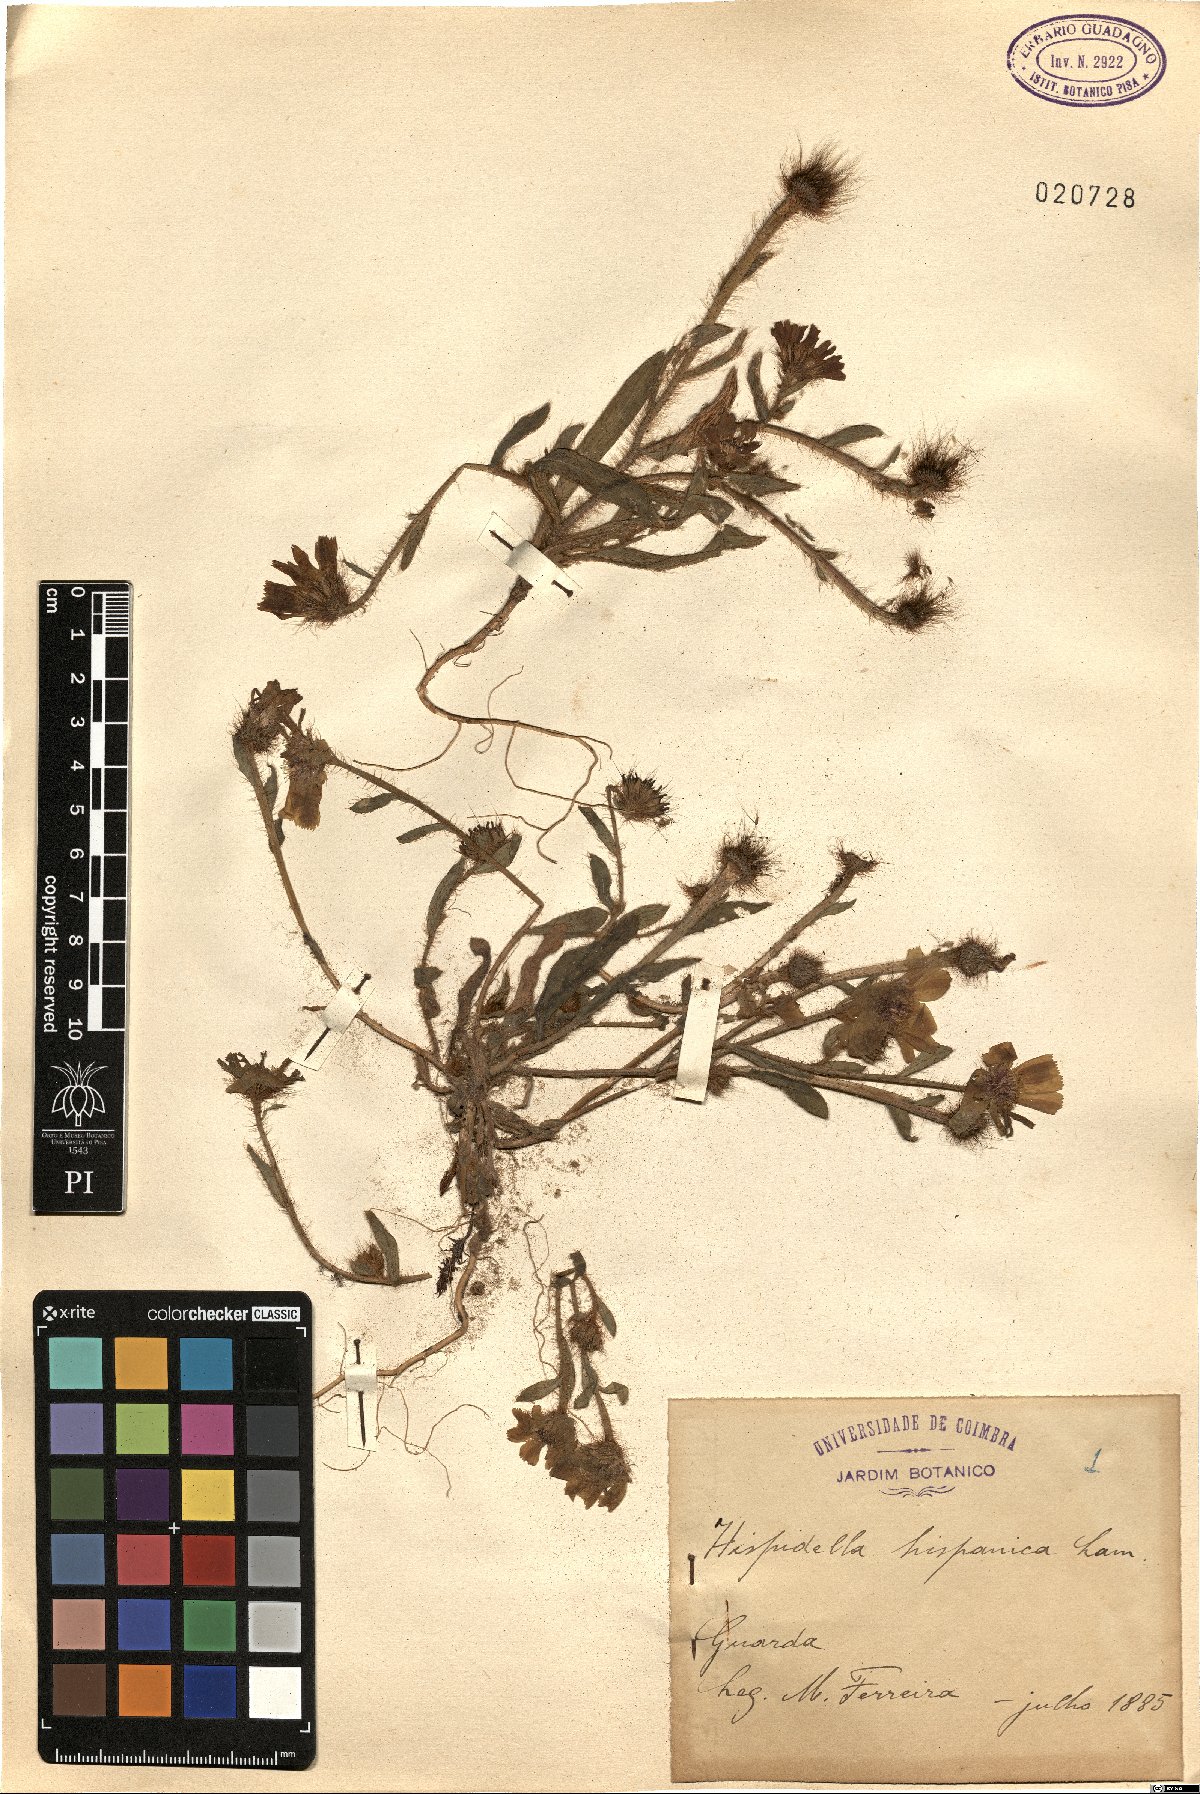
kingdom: Plantae
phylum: Tracheophyta
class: Magnoliopsida
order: Asterales
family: Asteraceae
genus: Hispidella
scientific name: Hispidella hispanica
